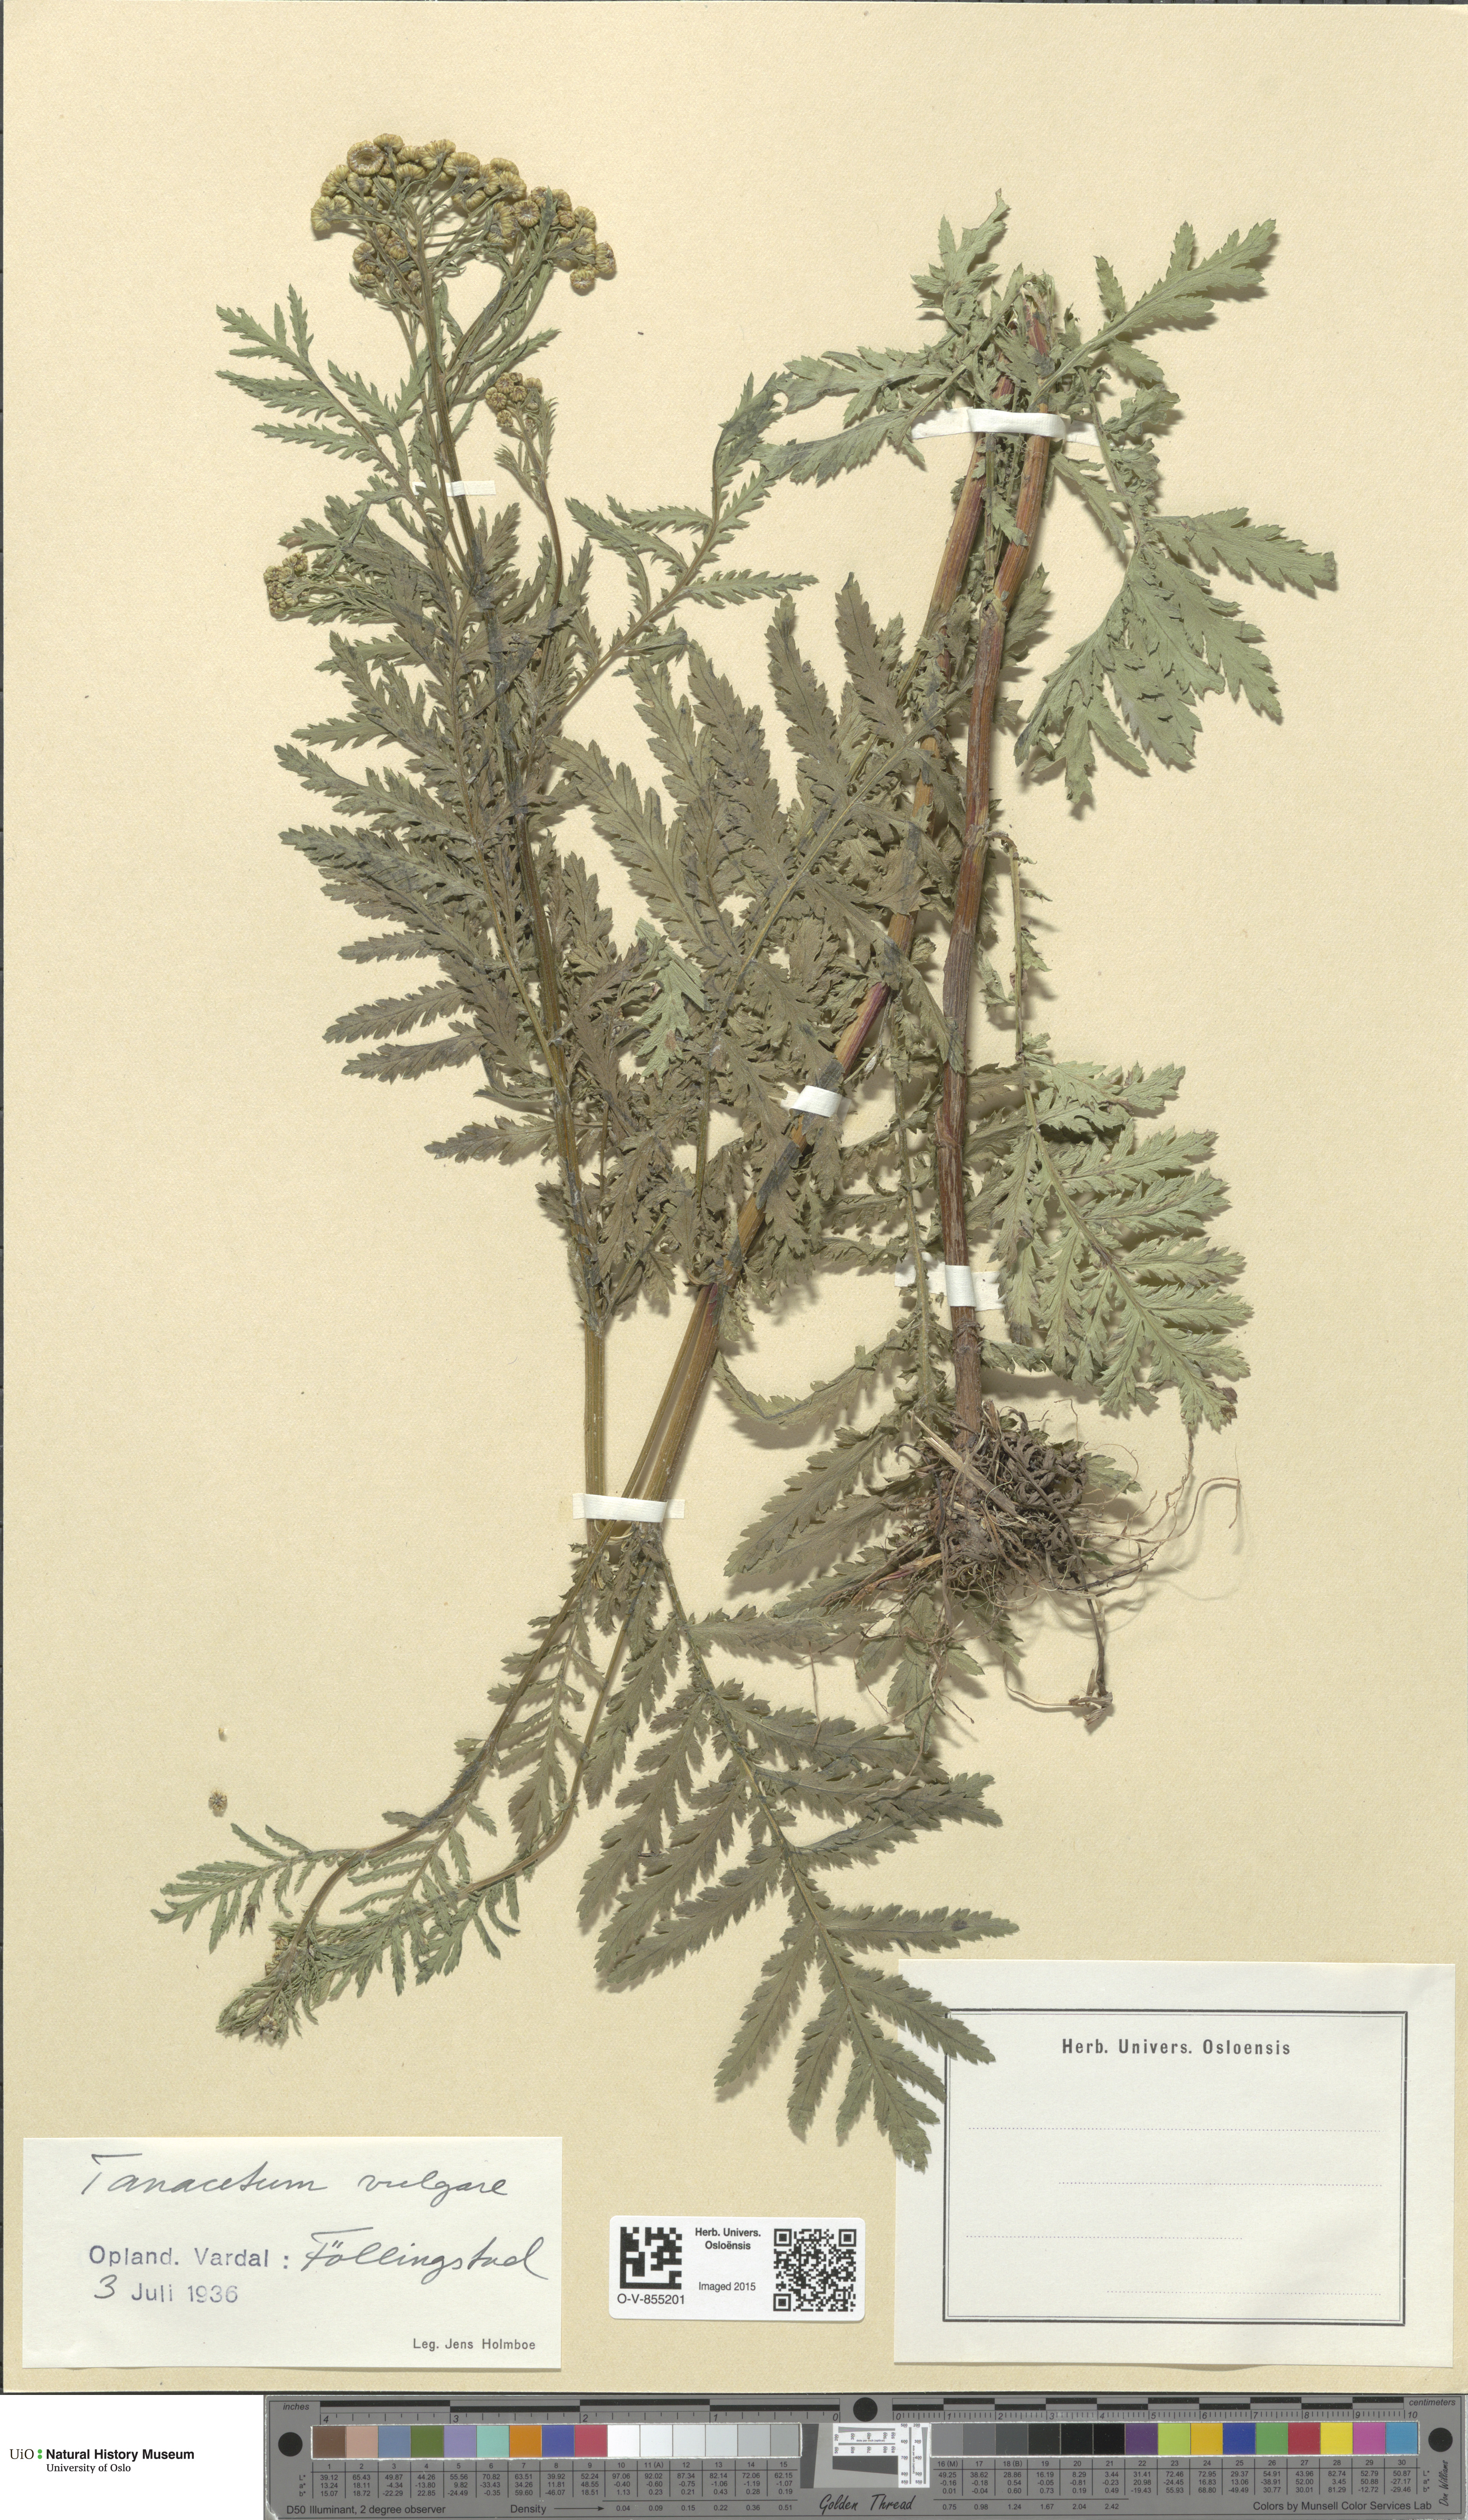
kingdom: Plantae
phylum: Tracheophyta
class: Magnoliopsida
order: Asterales
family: Asteraceae
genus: Tanacetum
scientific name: Tanacetum vulgare
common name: Common tansy
